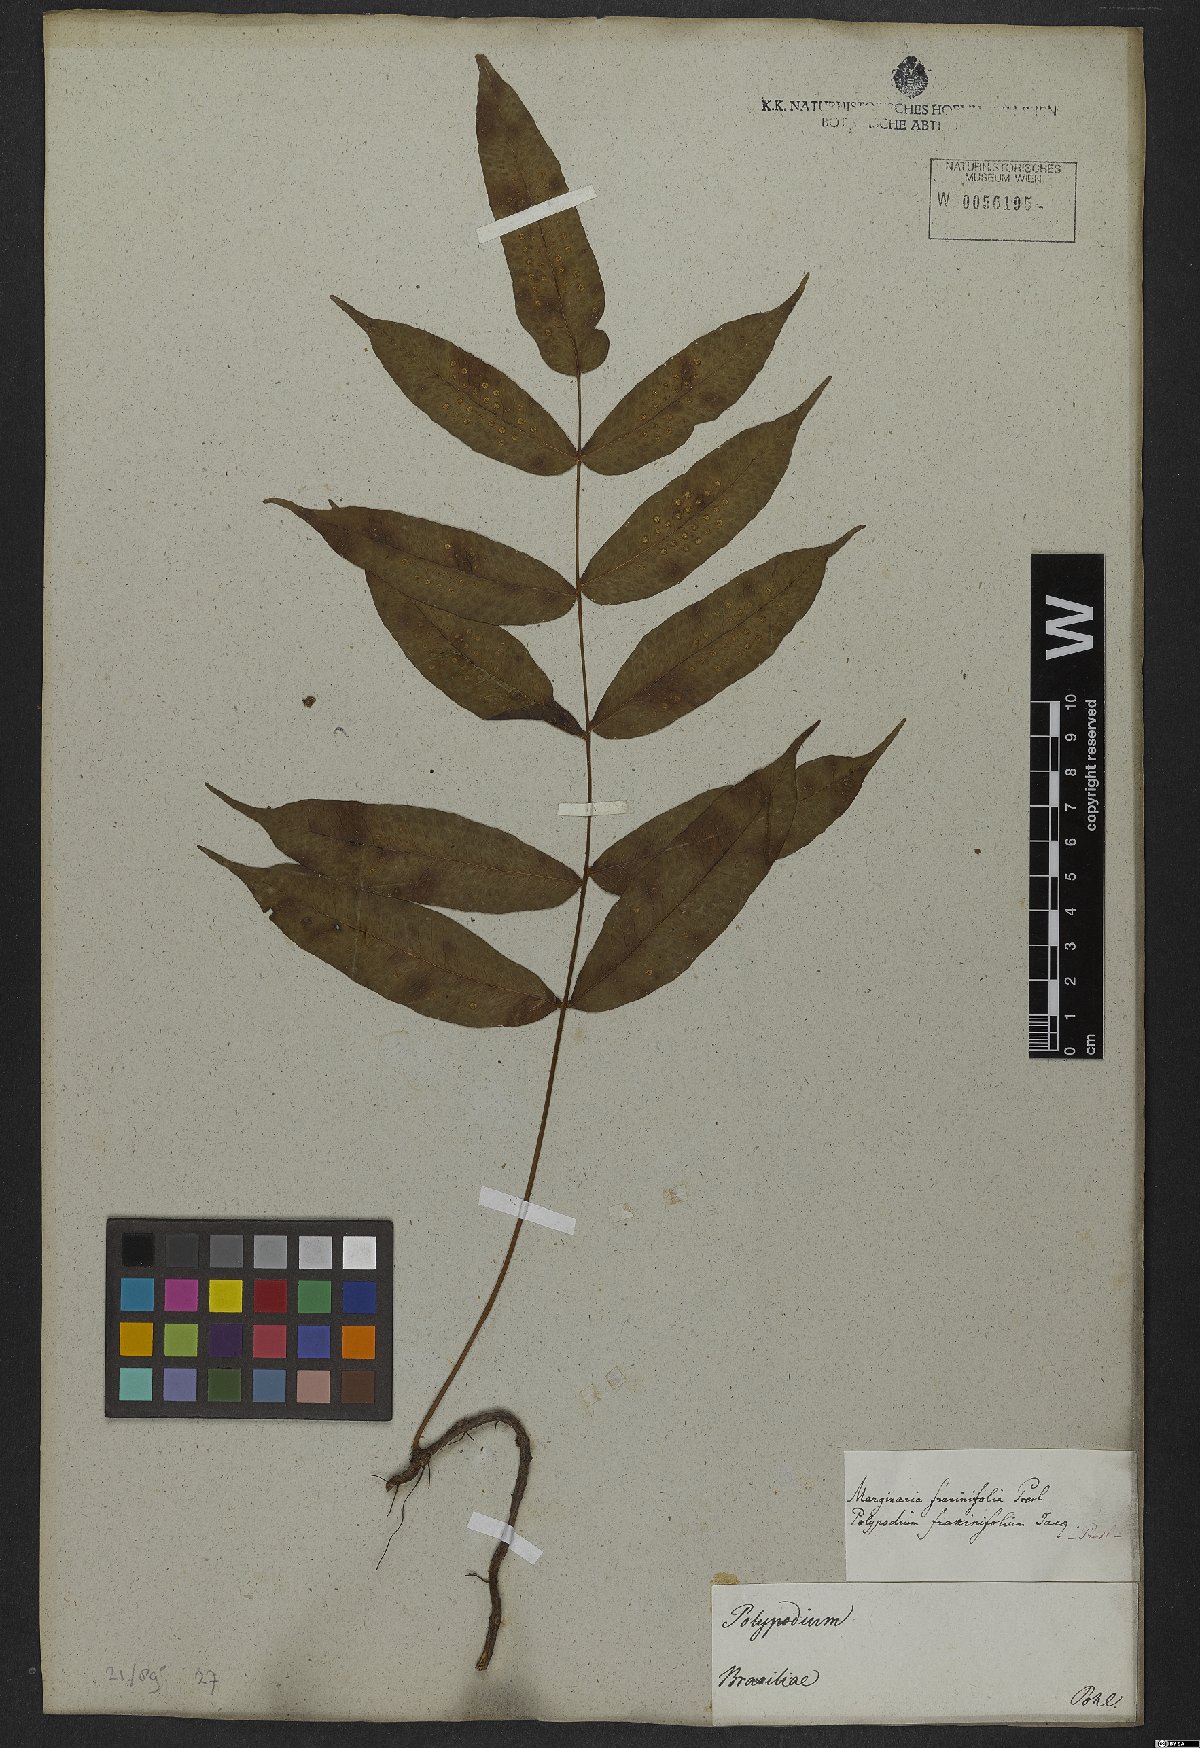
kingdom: Plantae
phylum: Tracheophyta
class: Polypodiopsida
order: Polypodiales
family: Polypodiaceae
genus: Serpocaulon
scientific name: Serpocaulon fraxinifolium
